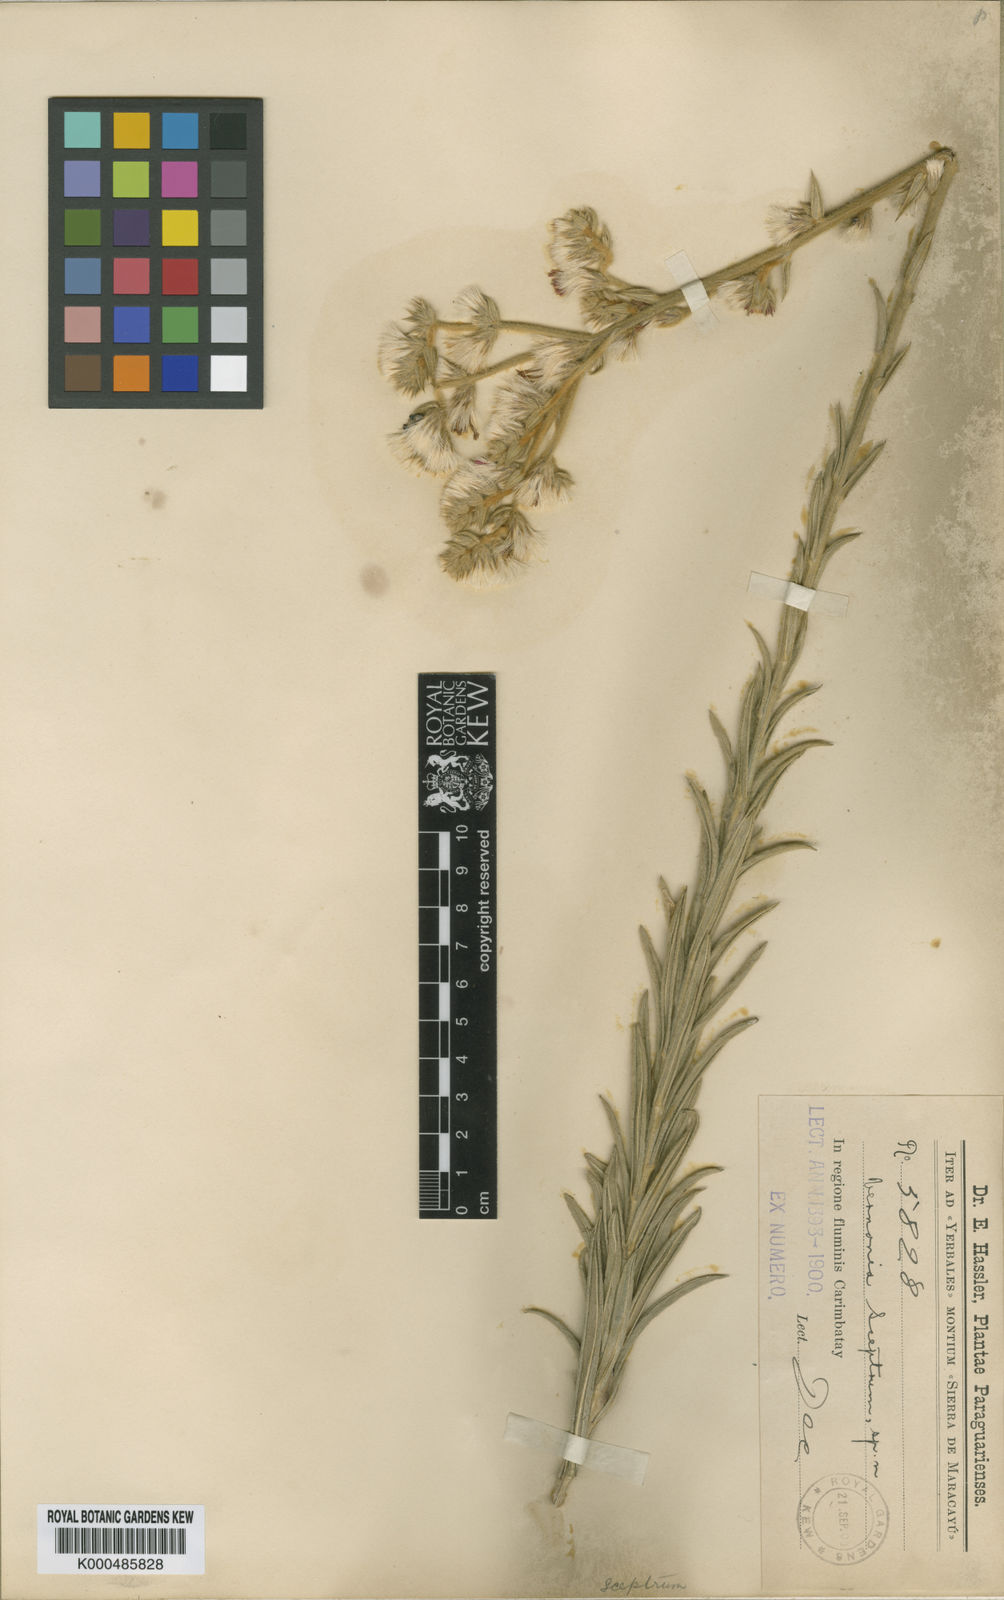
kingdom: Plantae
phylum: Tracheophyta
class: Magnoliopsida
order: Asterales
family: Asteraceae
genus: Chrysolaena
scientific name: Chrysolaena sceptrum
